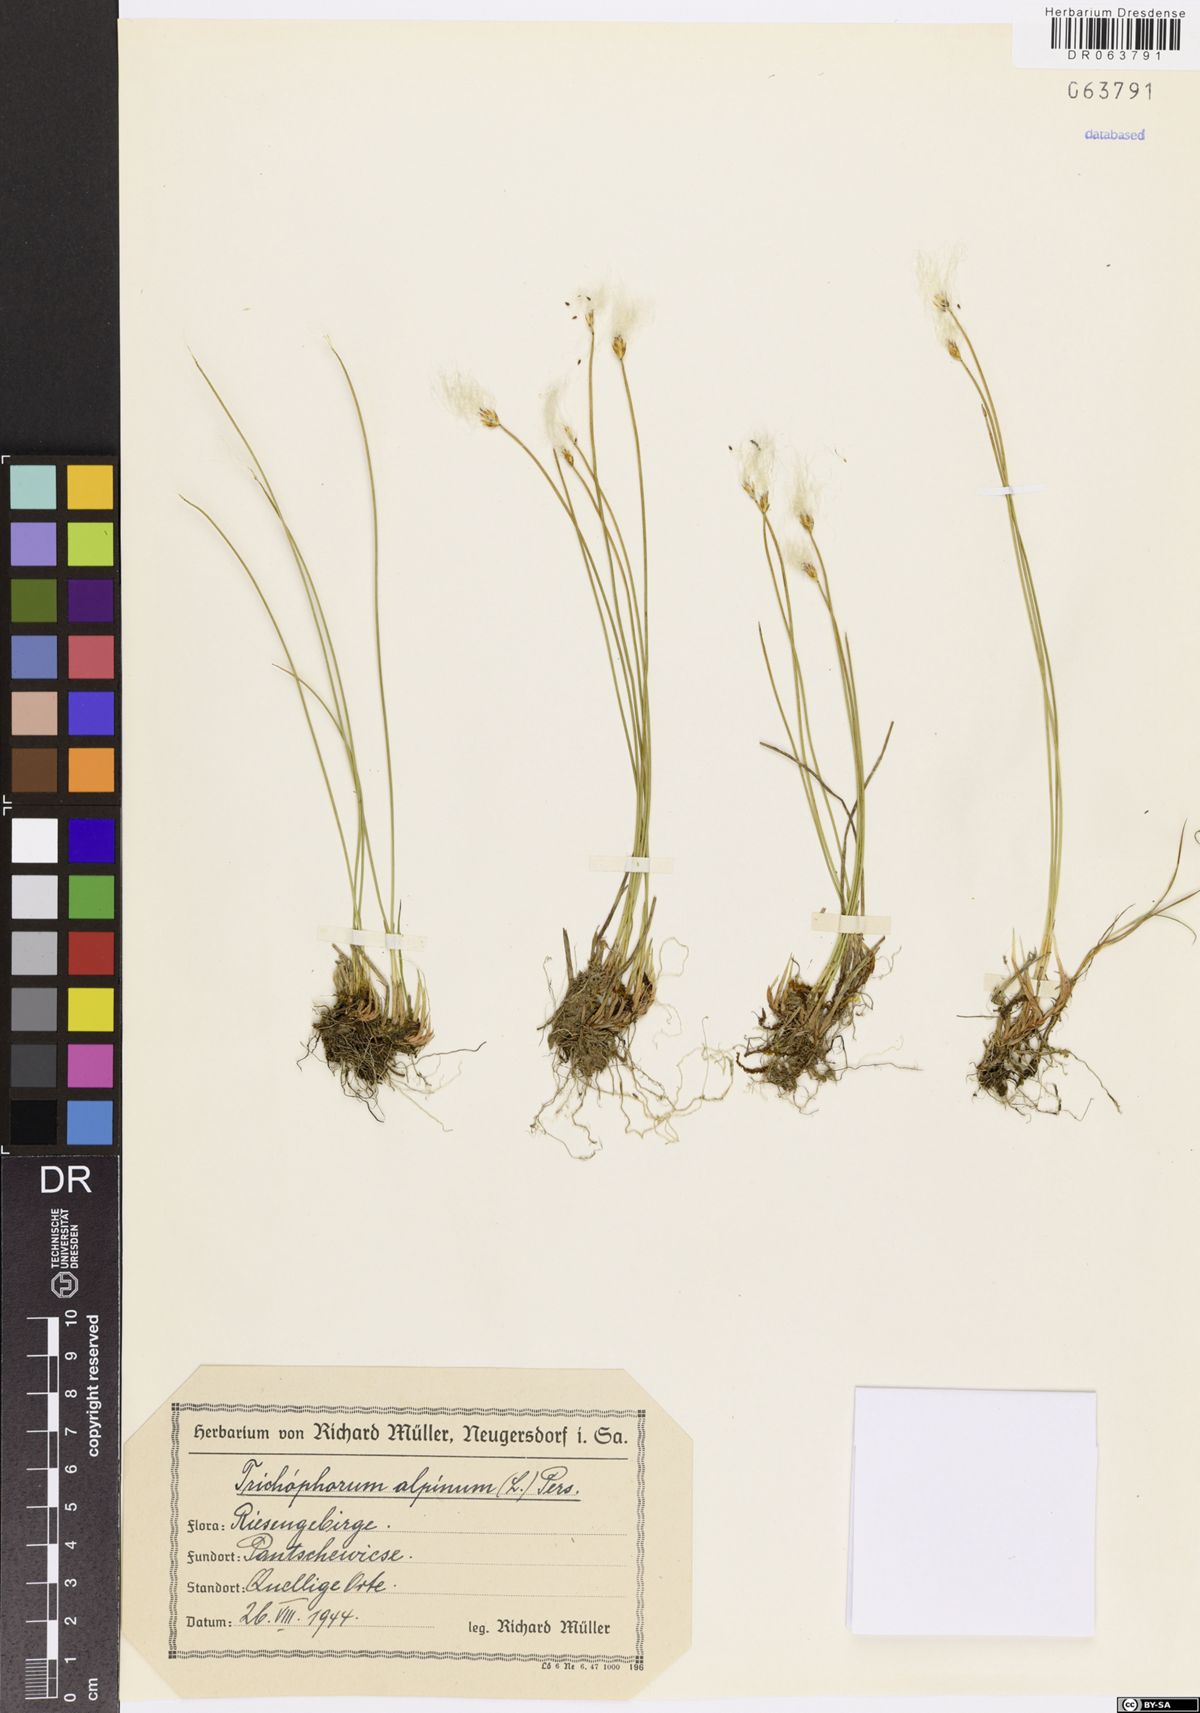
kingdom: Plantae
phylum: Tracheophyta
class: Liliopsida
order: Poales
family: Cyperaceae
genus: Trichophorum
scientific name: Trichophorum alpinum
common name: Alpine bulrush
